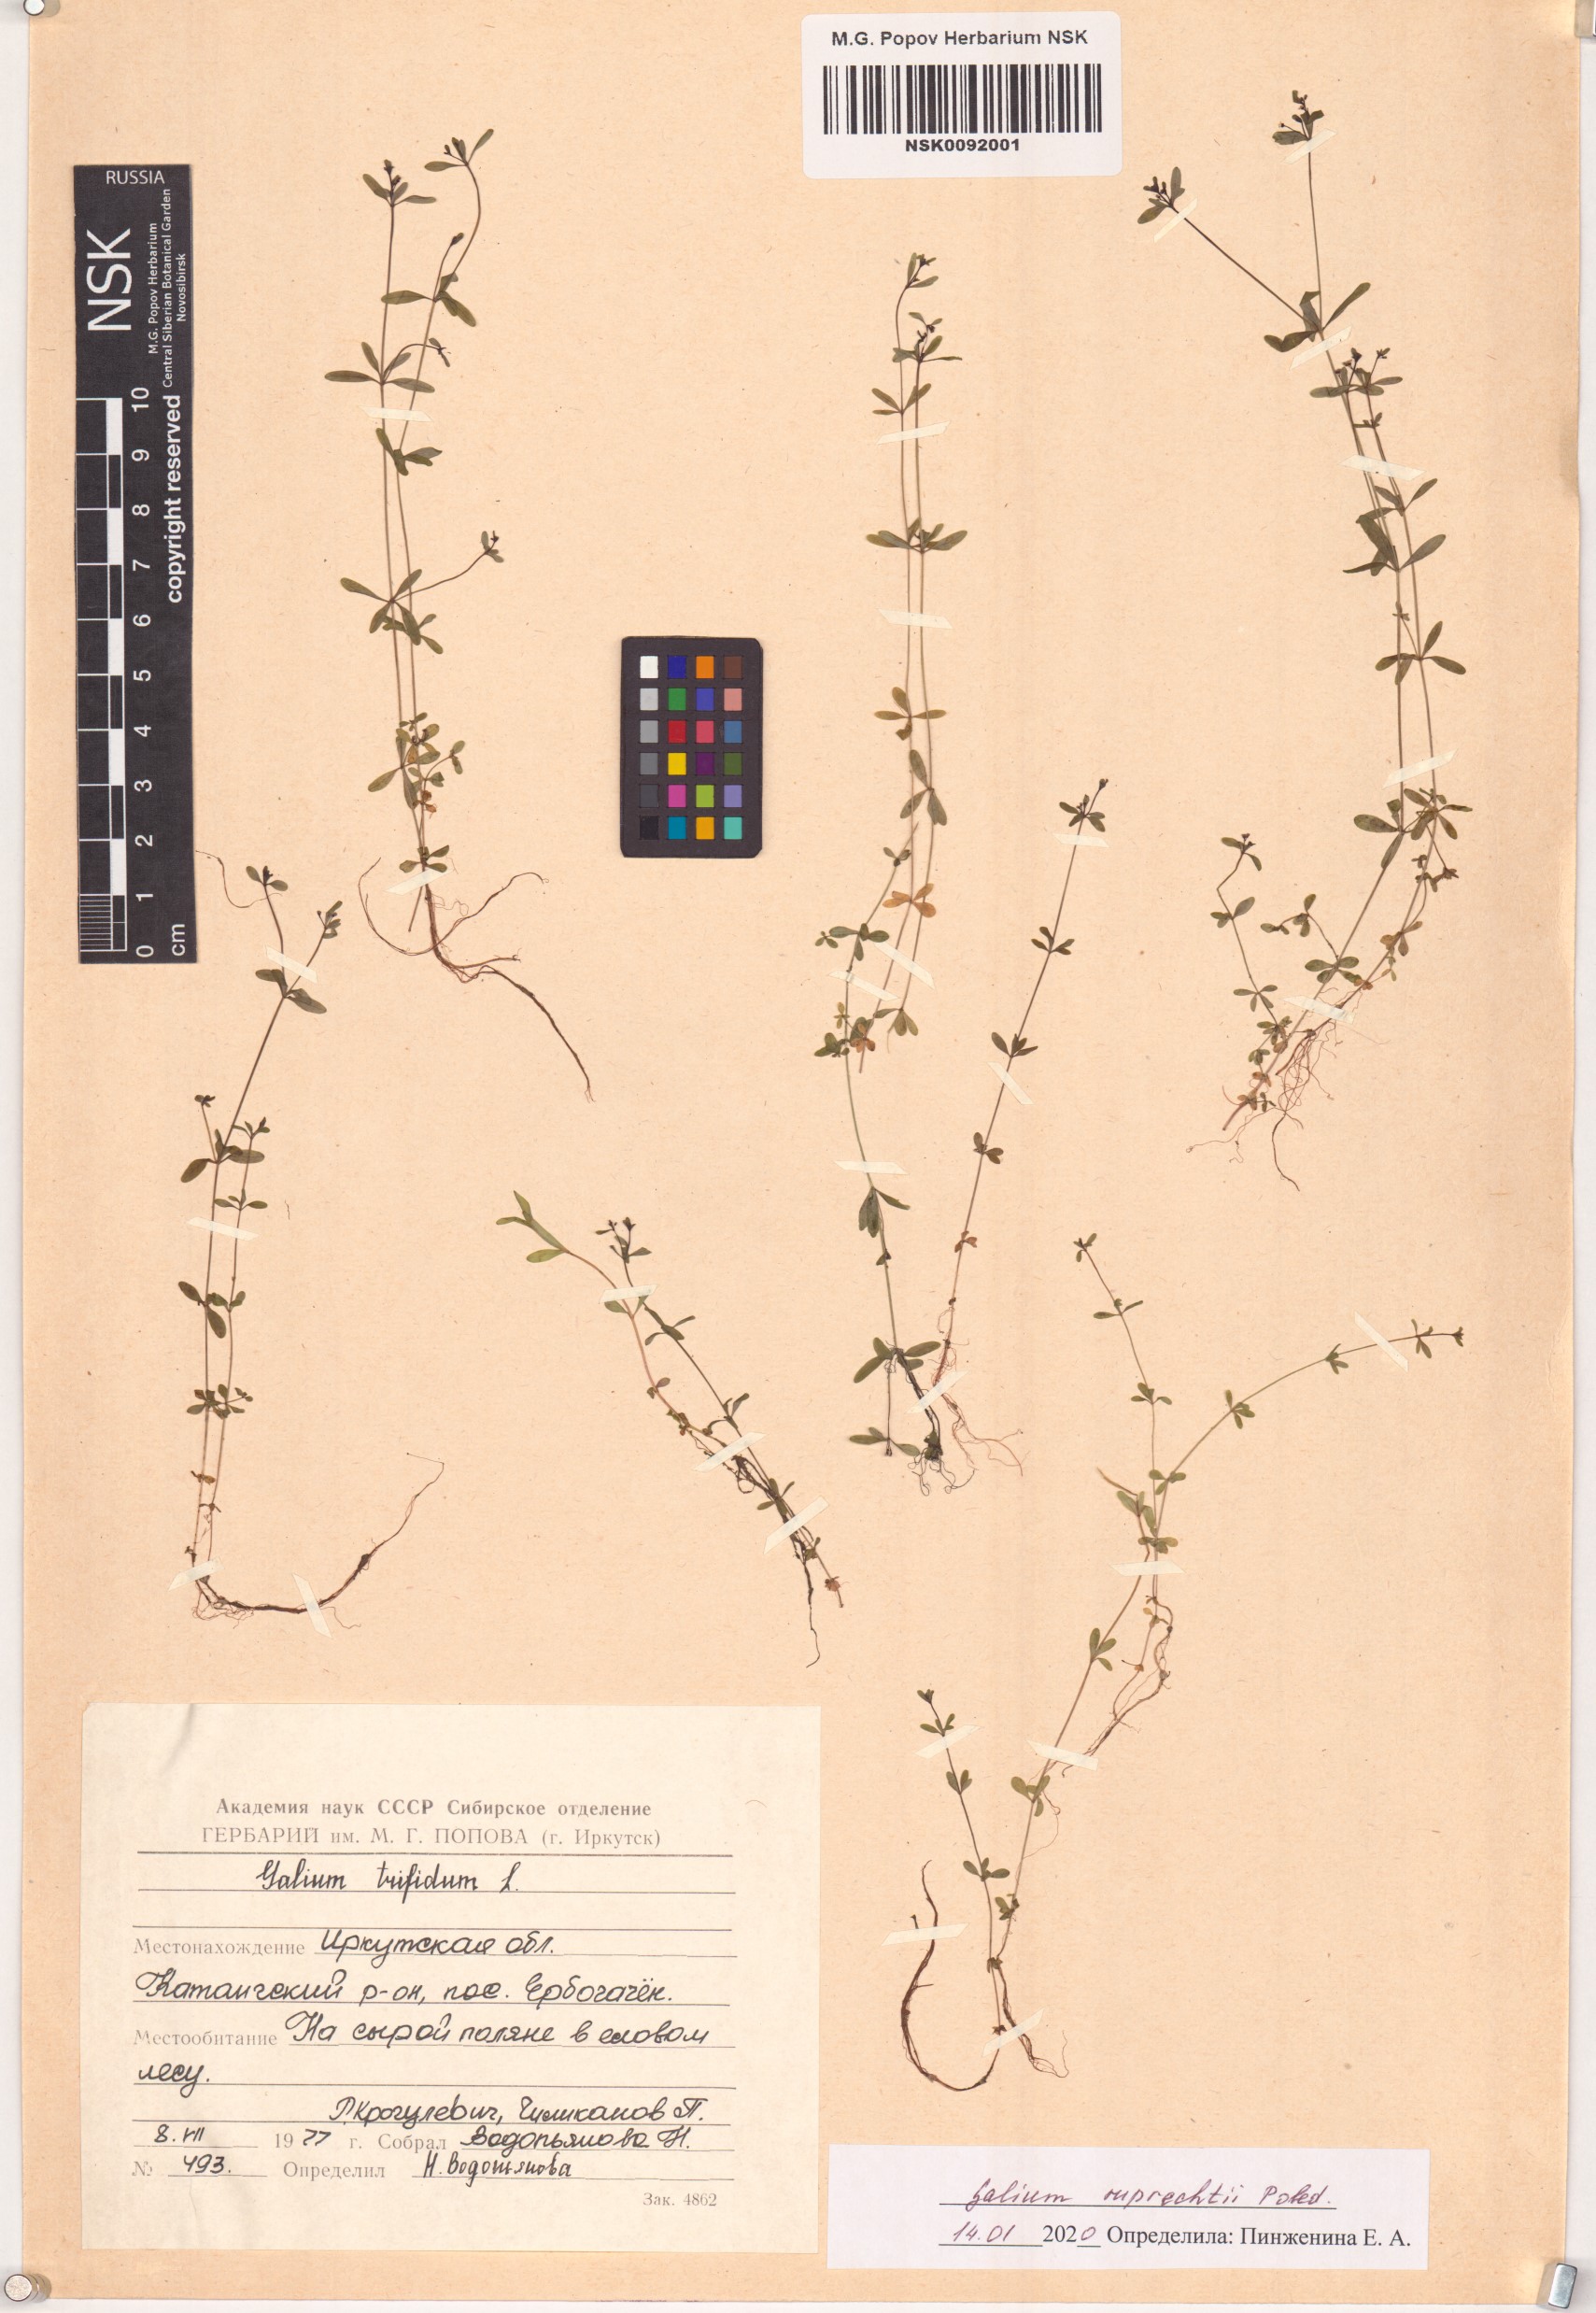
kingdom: Plantae
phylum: Tracheophyta
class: Magnoliopsida
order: Gentianales
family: Rubiaceae
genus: Galium
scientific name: Galium trifidum
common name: Small bedstraw
